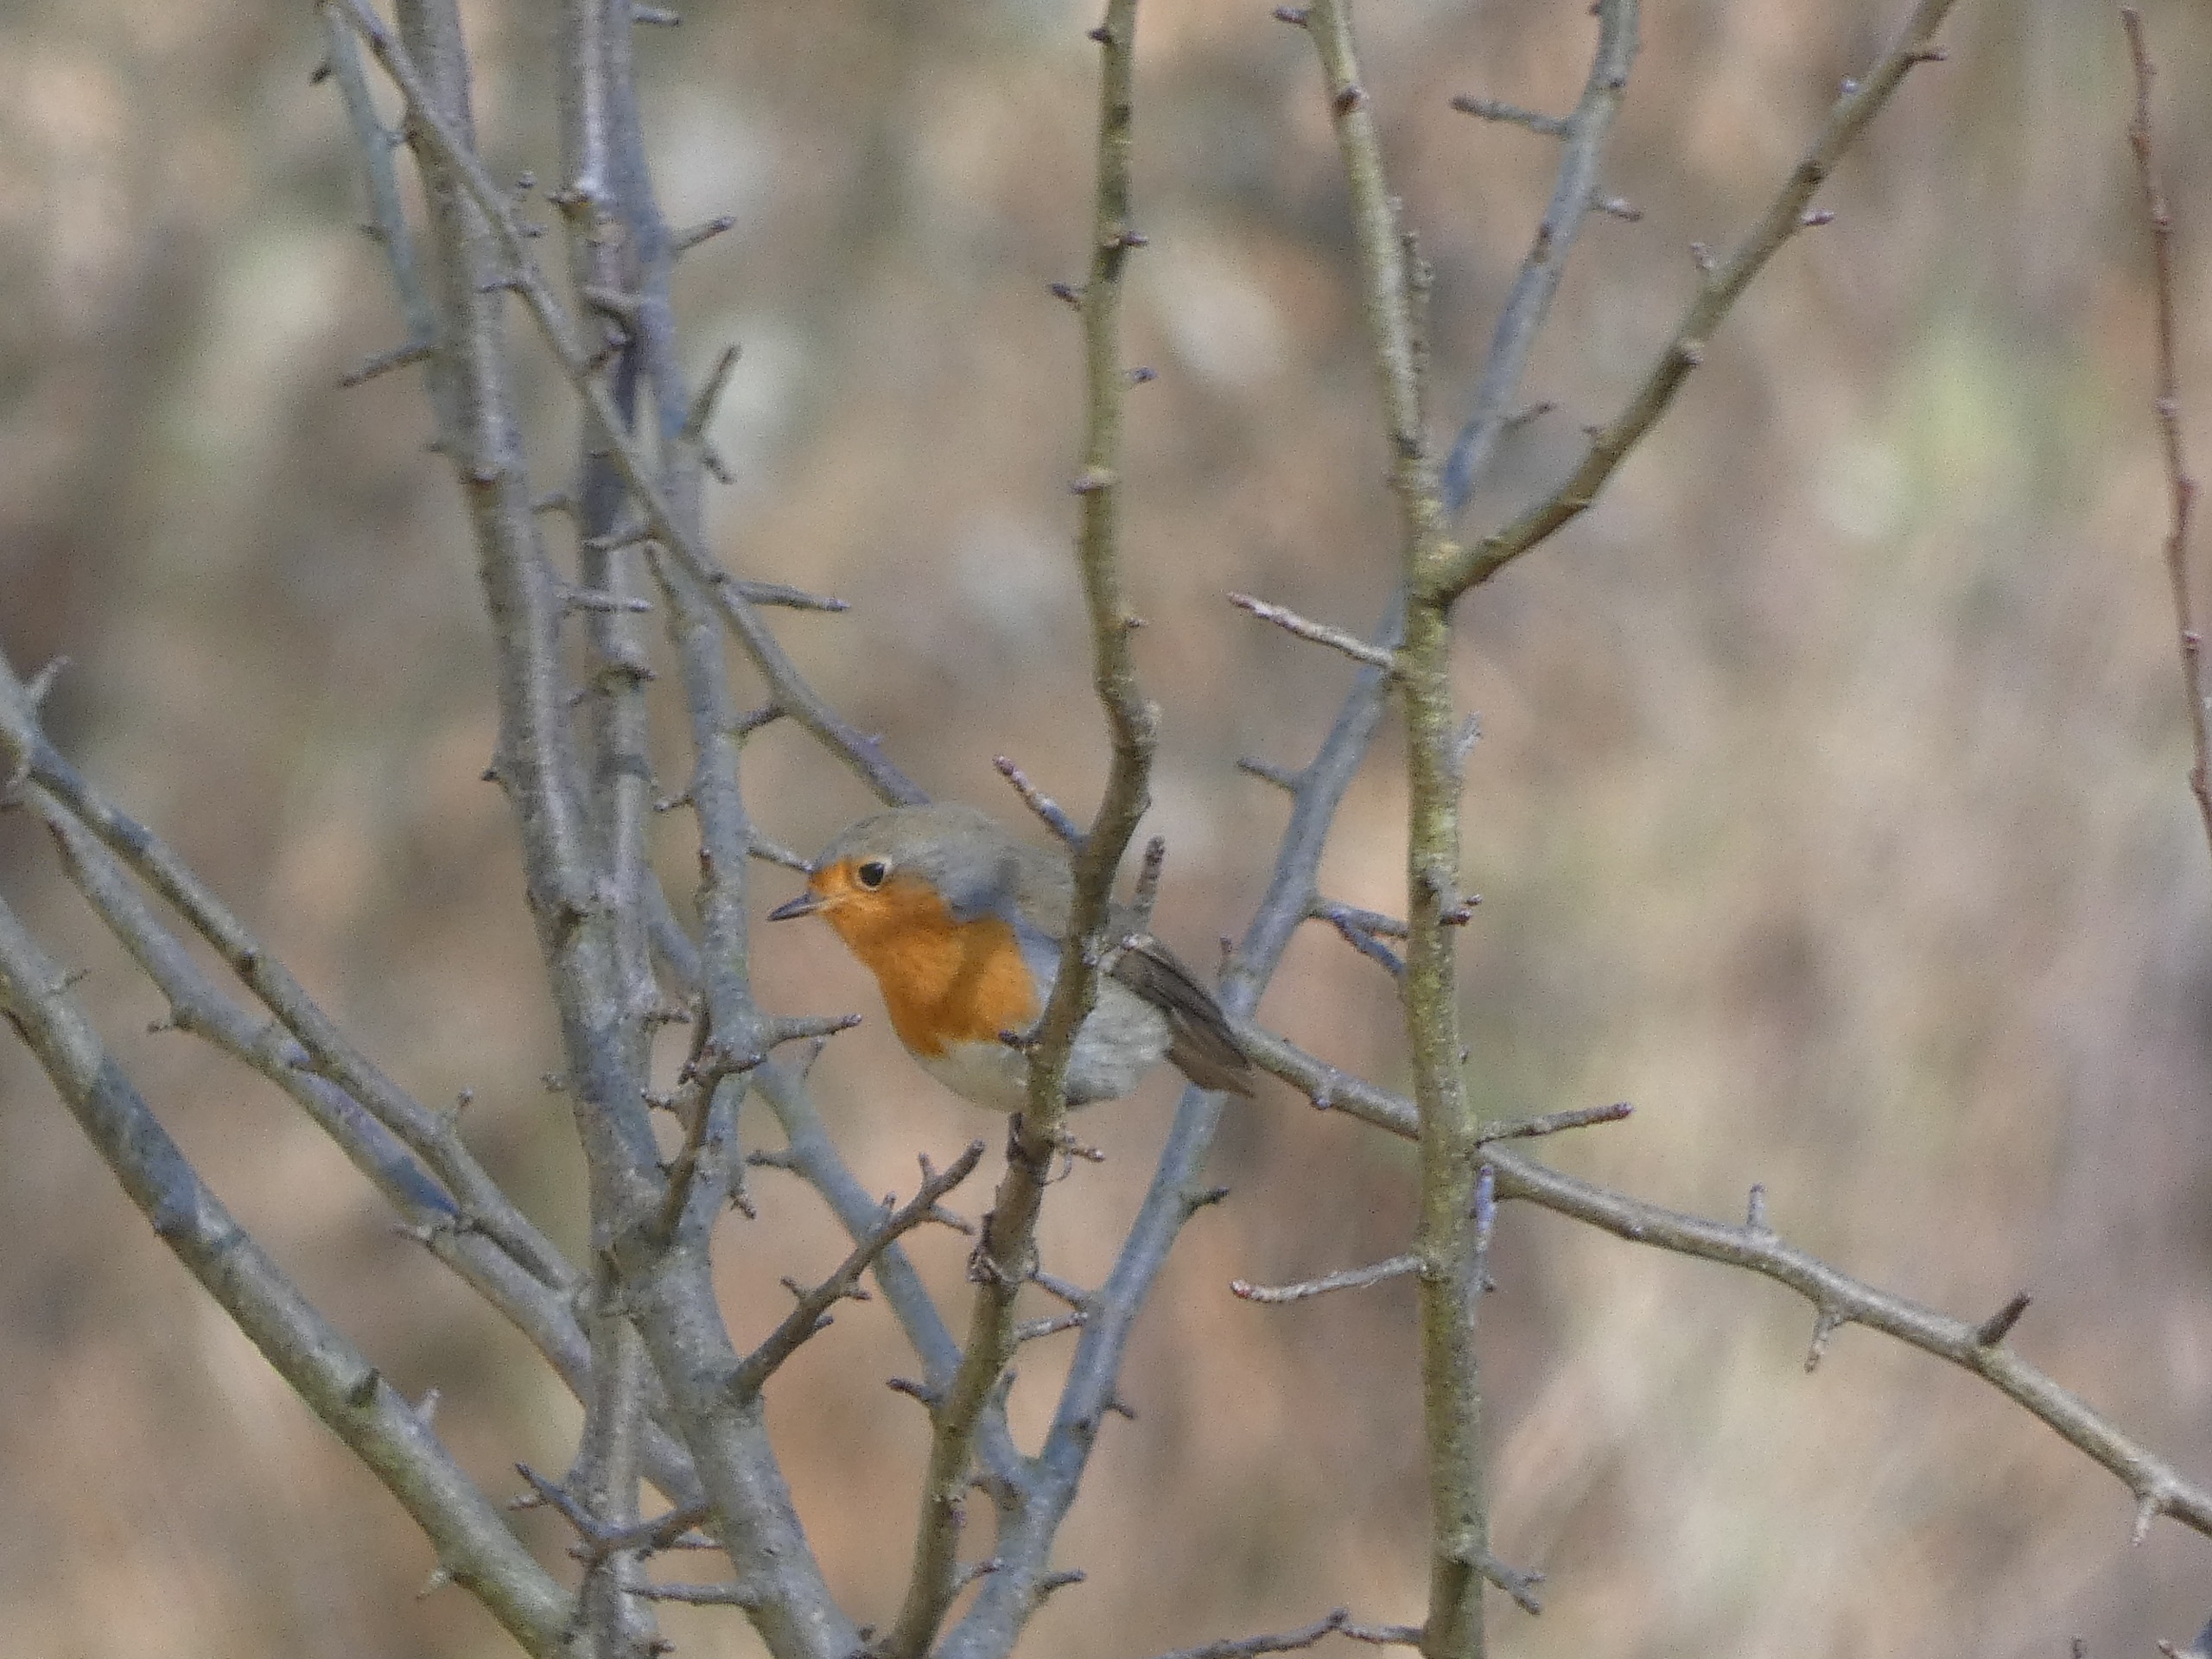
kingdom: Animalia
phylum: Chordata
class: Aves
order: Passeriformes
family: Muscicapidae
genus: Erithacus
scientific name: Erithacus rubecula
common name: Rødhals/rødkælk
